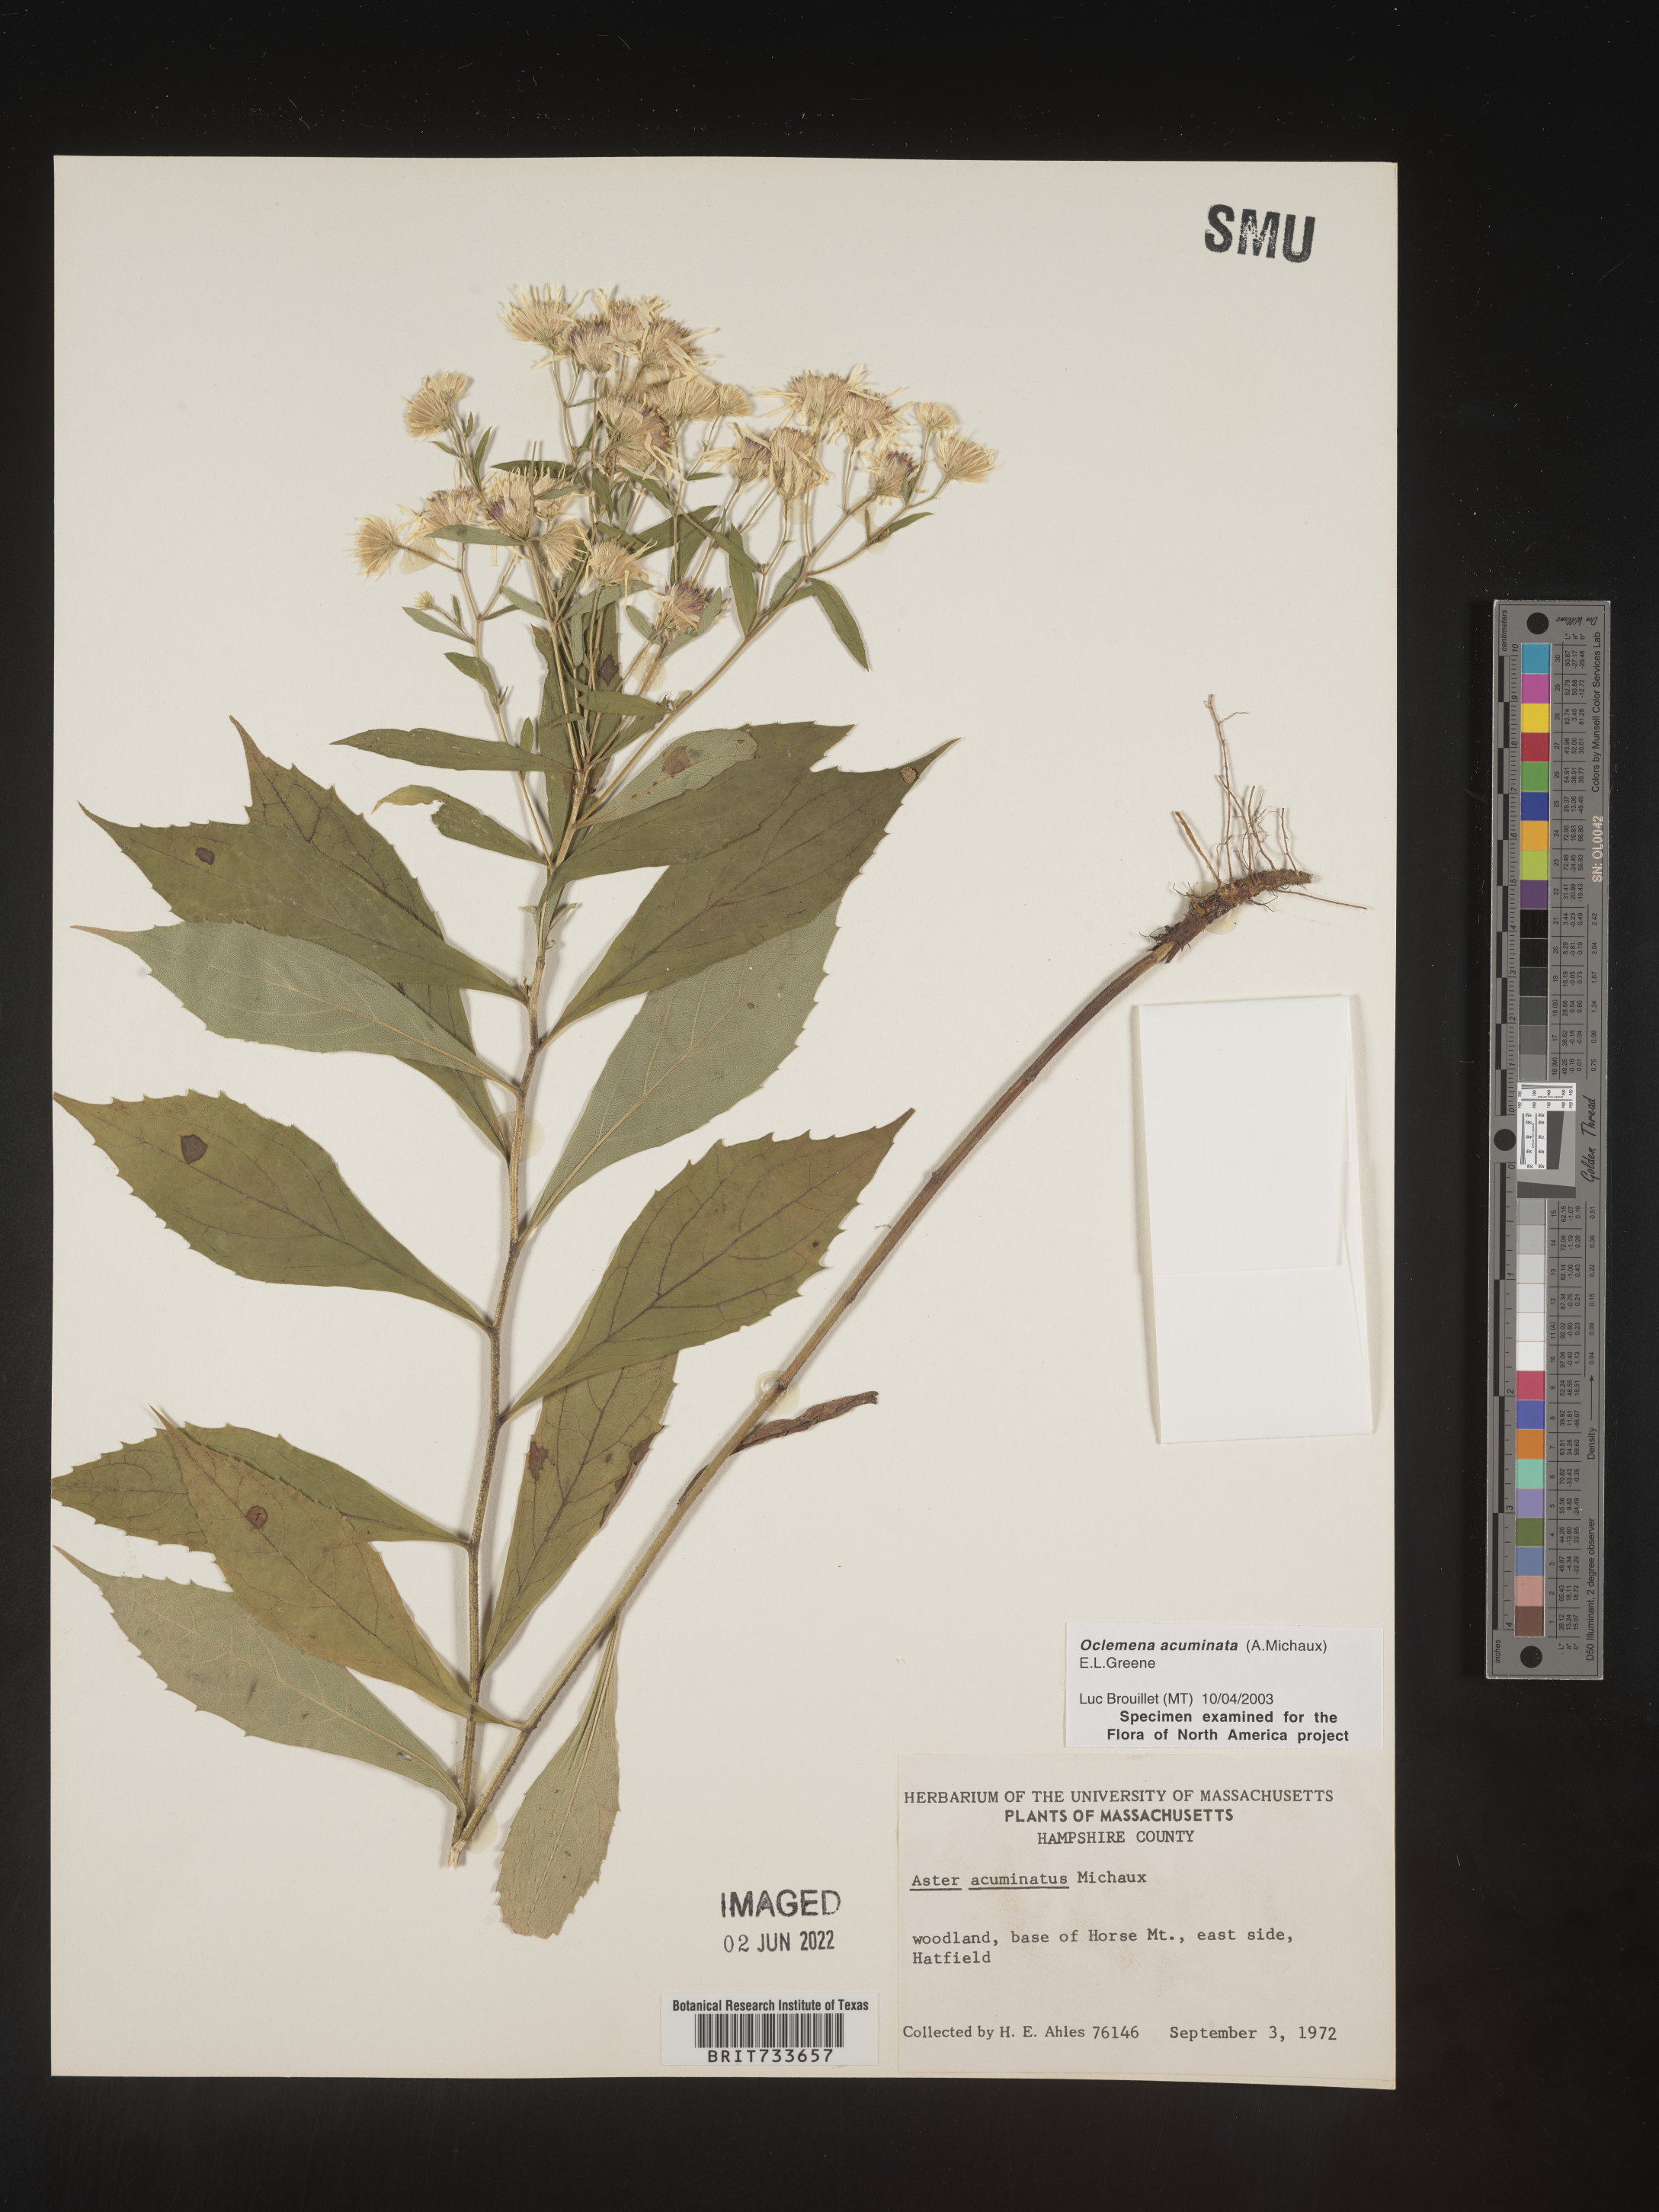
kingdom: Plantae
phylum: Tracheophyta
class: Magnoliopsida
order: Asterales
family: Asteraceae
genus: Oclemena
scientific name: Oclemena acuminata
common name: Mountain aster
